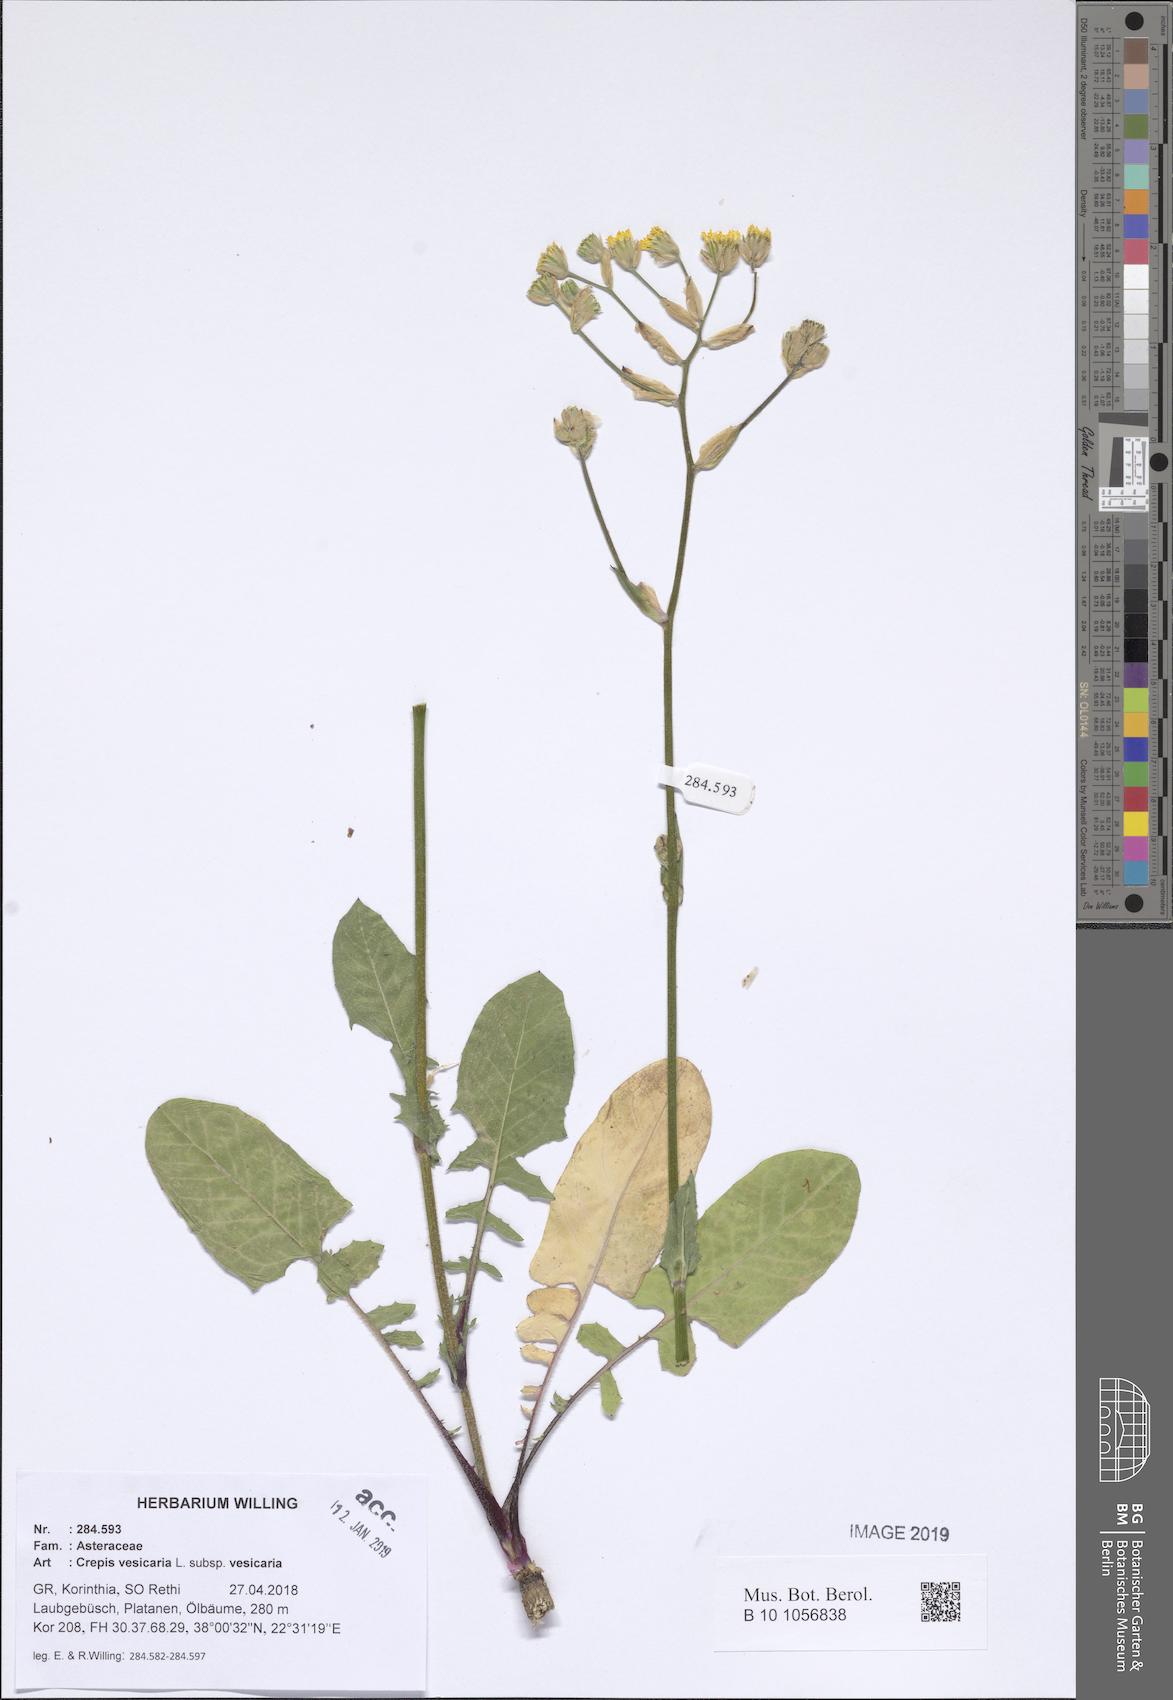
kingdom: Plantae
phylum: Tracheophyta
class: Magnoliopsida
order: Asterales
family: Asteraceae
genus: Crepis
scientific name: Crepis vesicaria
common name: Beaked hawksbeard
